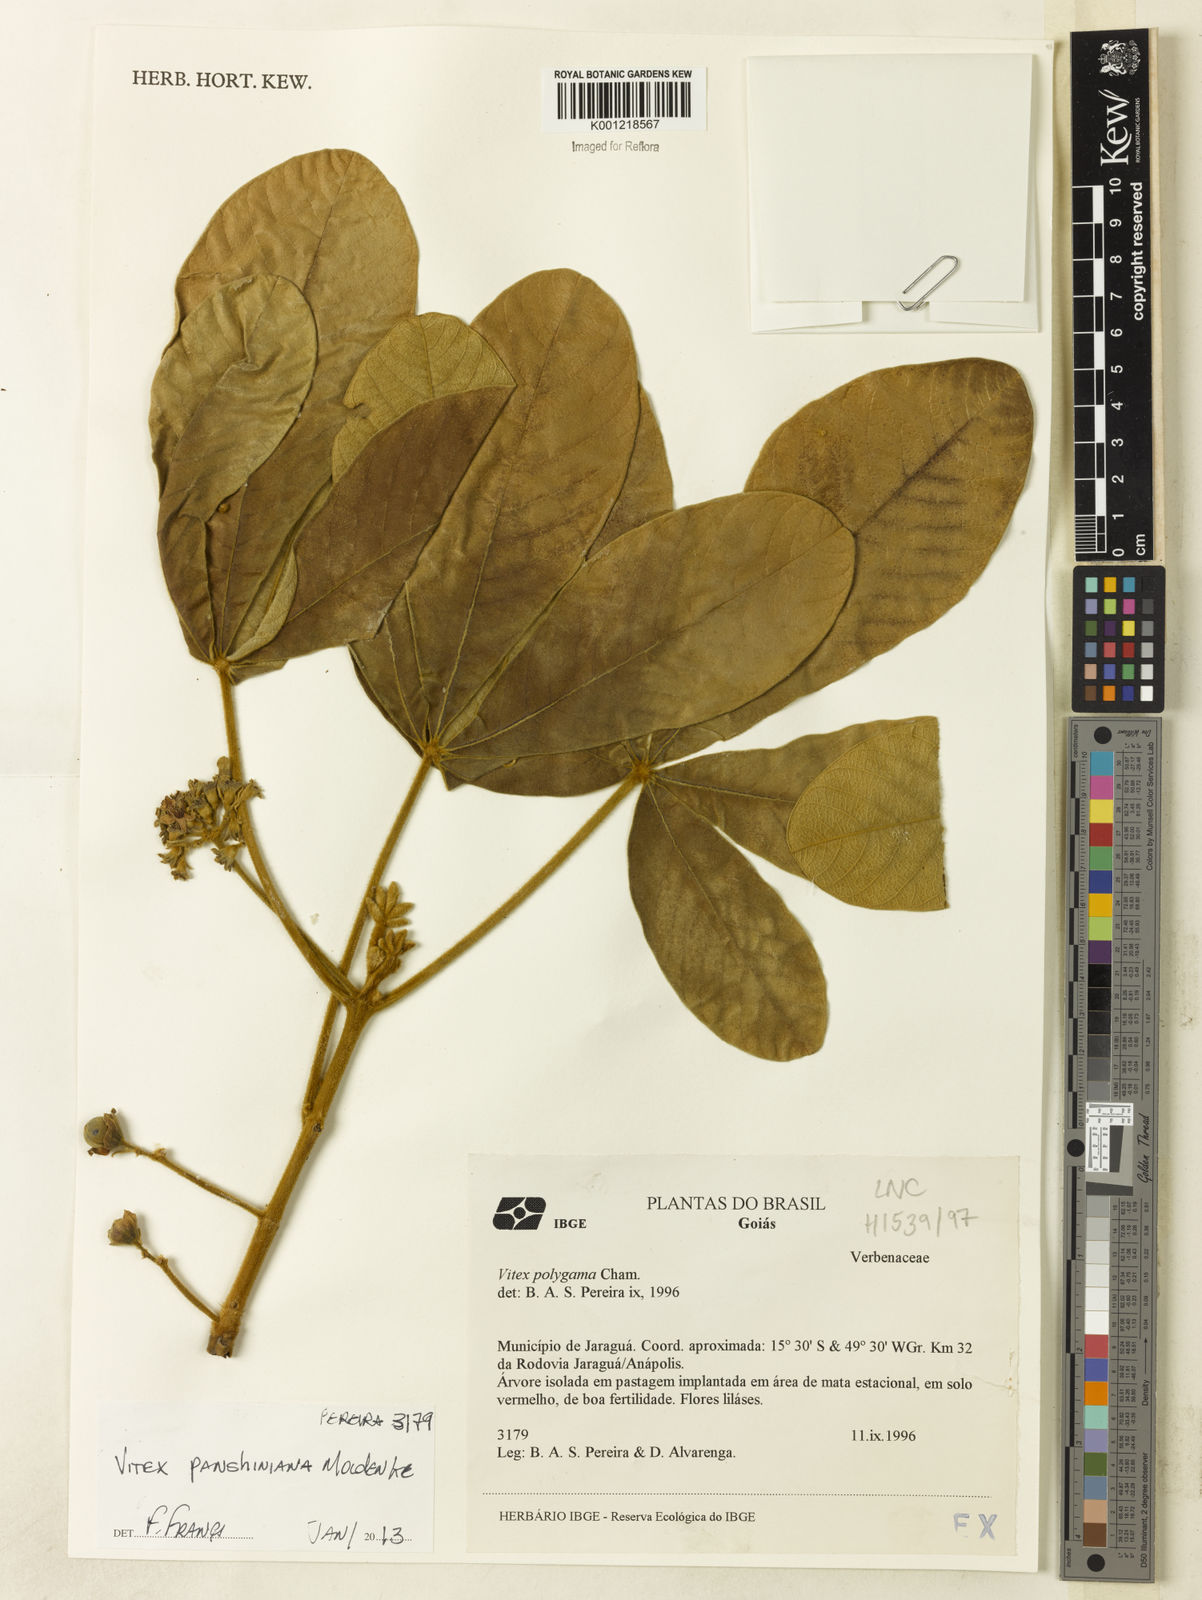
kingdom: Plantae
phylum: Tracheophyta
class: Magnoliopsida
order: Lamiales
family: Lamiaceae
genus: Vitex
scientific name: Vitex panshiniana
